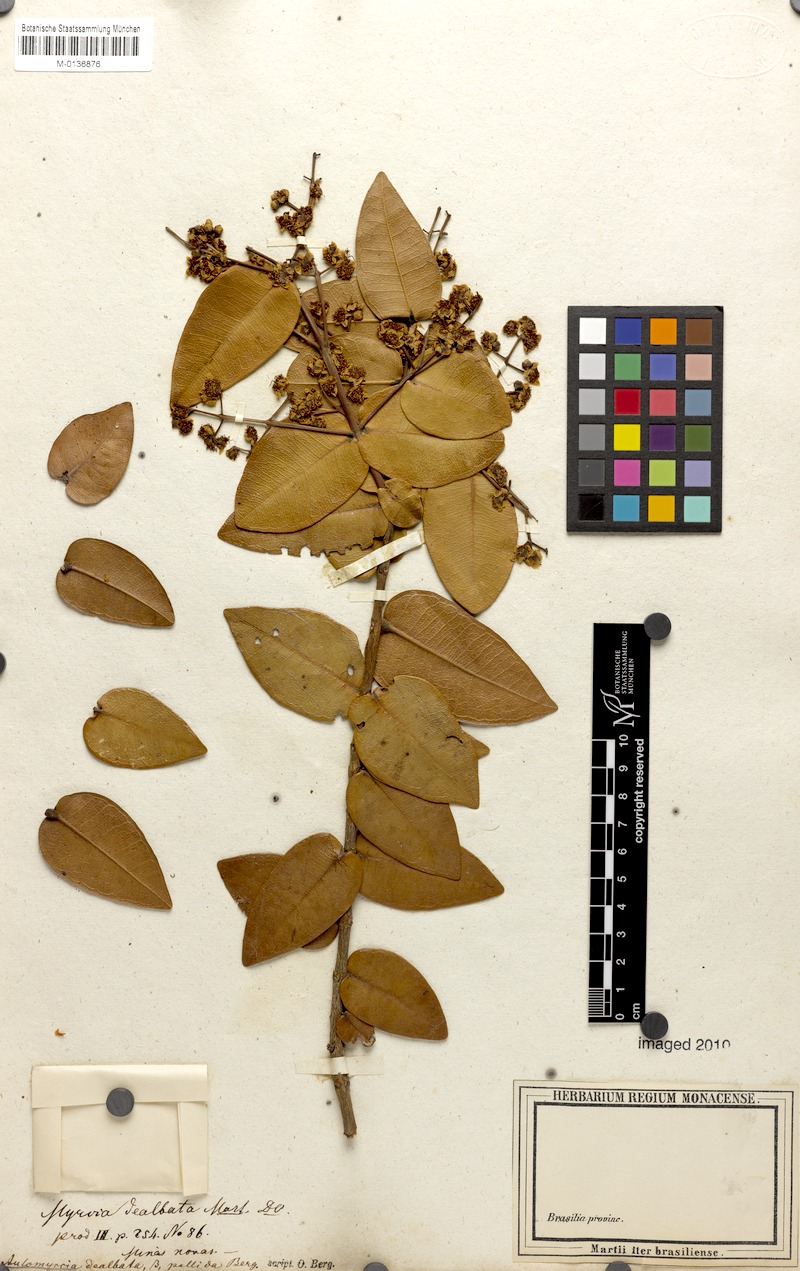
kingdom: Plantae
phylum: Tracheophyta
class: Magnoliopsida
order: Myrtales
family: Myrtaceae
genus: Myrcia
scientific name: Myrcia dealbata
